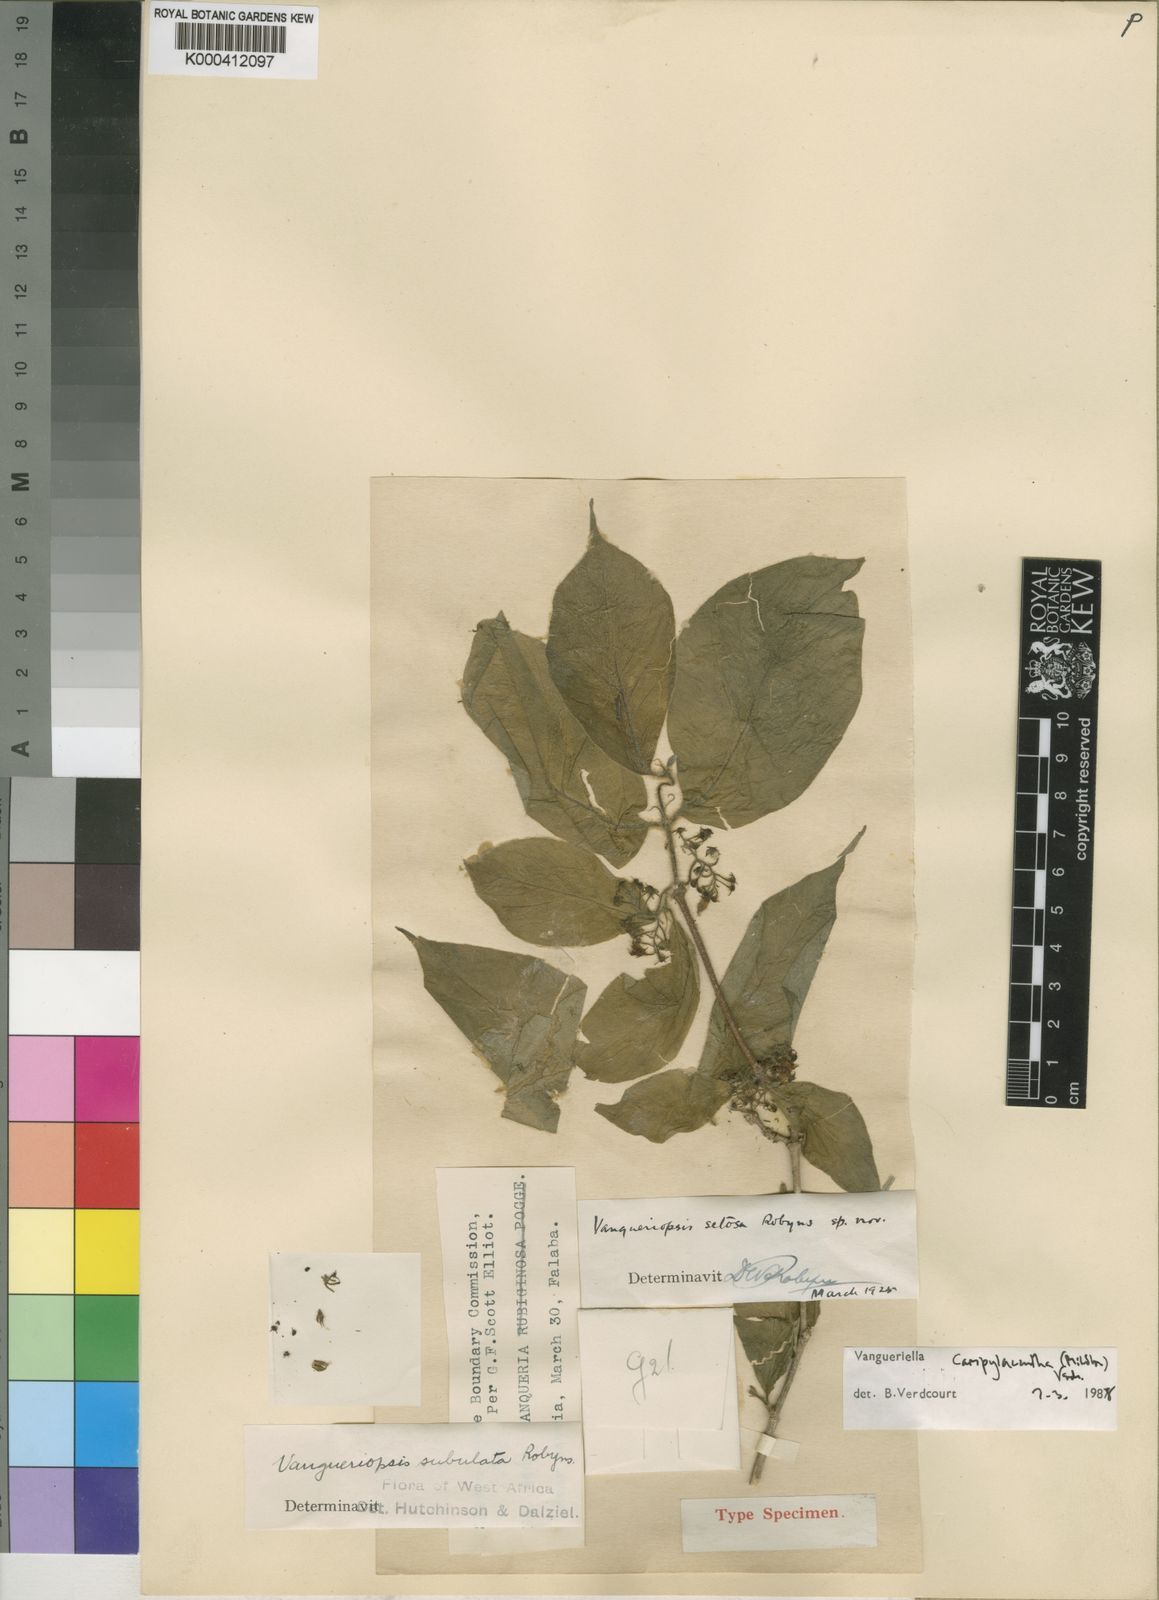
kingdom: Plantae
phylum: Tracheophyta
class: Magnoliopsida
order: Gentianales
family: Rubiaceae
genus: Vangueriella
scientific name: Vangueriella campylacantha
